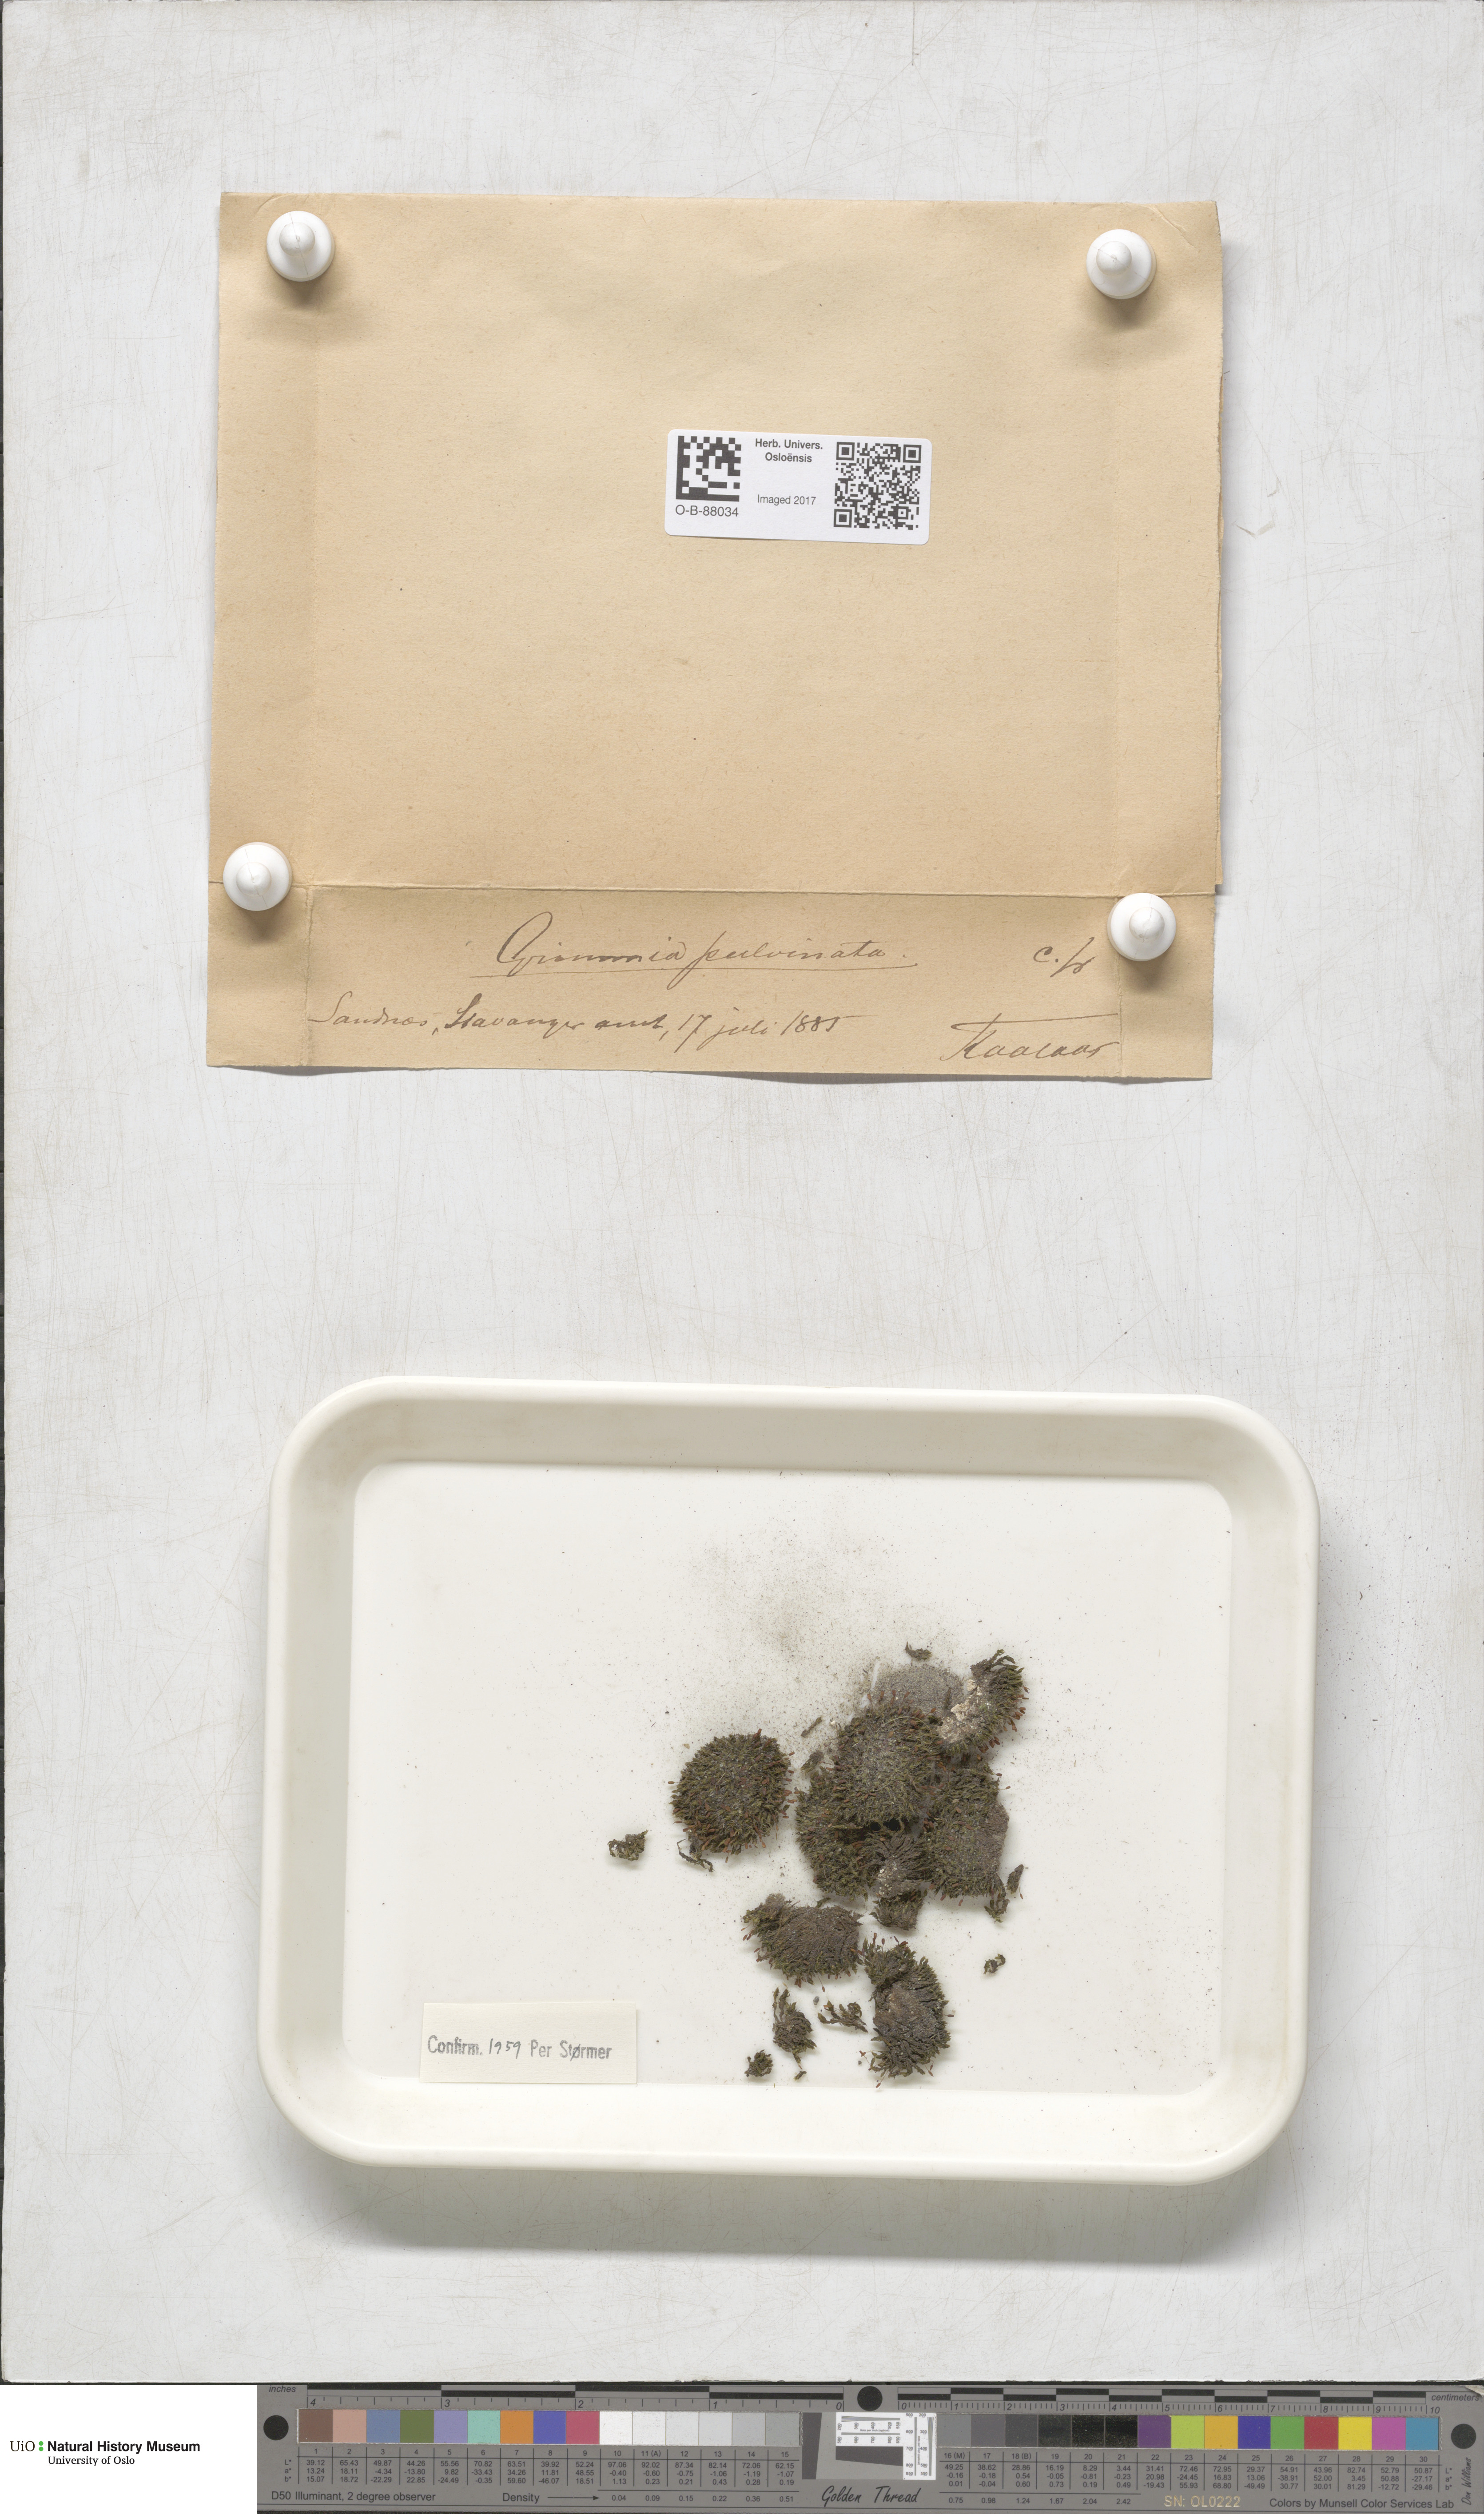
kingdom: Plantae
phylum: Bryophyta
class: Bryopsida
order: Grimmiales
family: Grimmiaceae
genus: Grimmia
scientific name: Grimmia pulvinata
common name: Grey-cushioned grimmia
